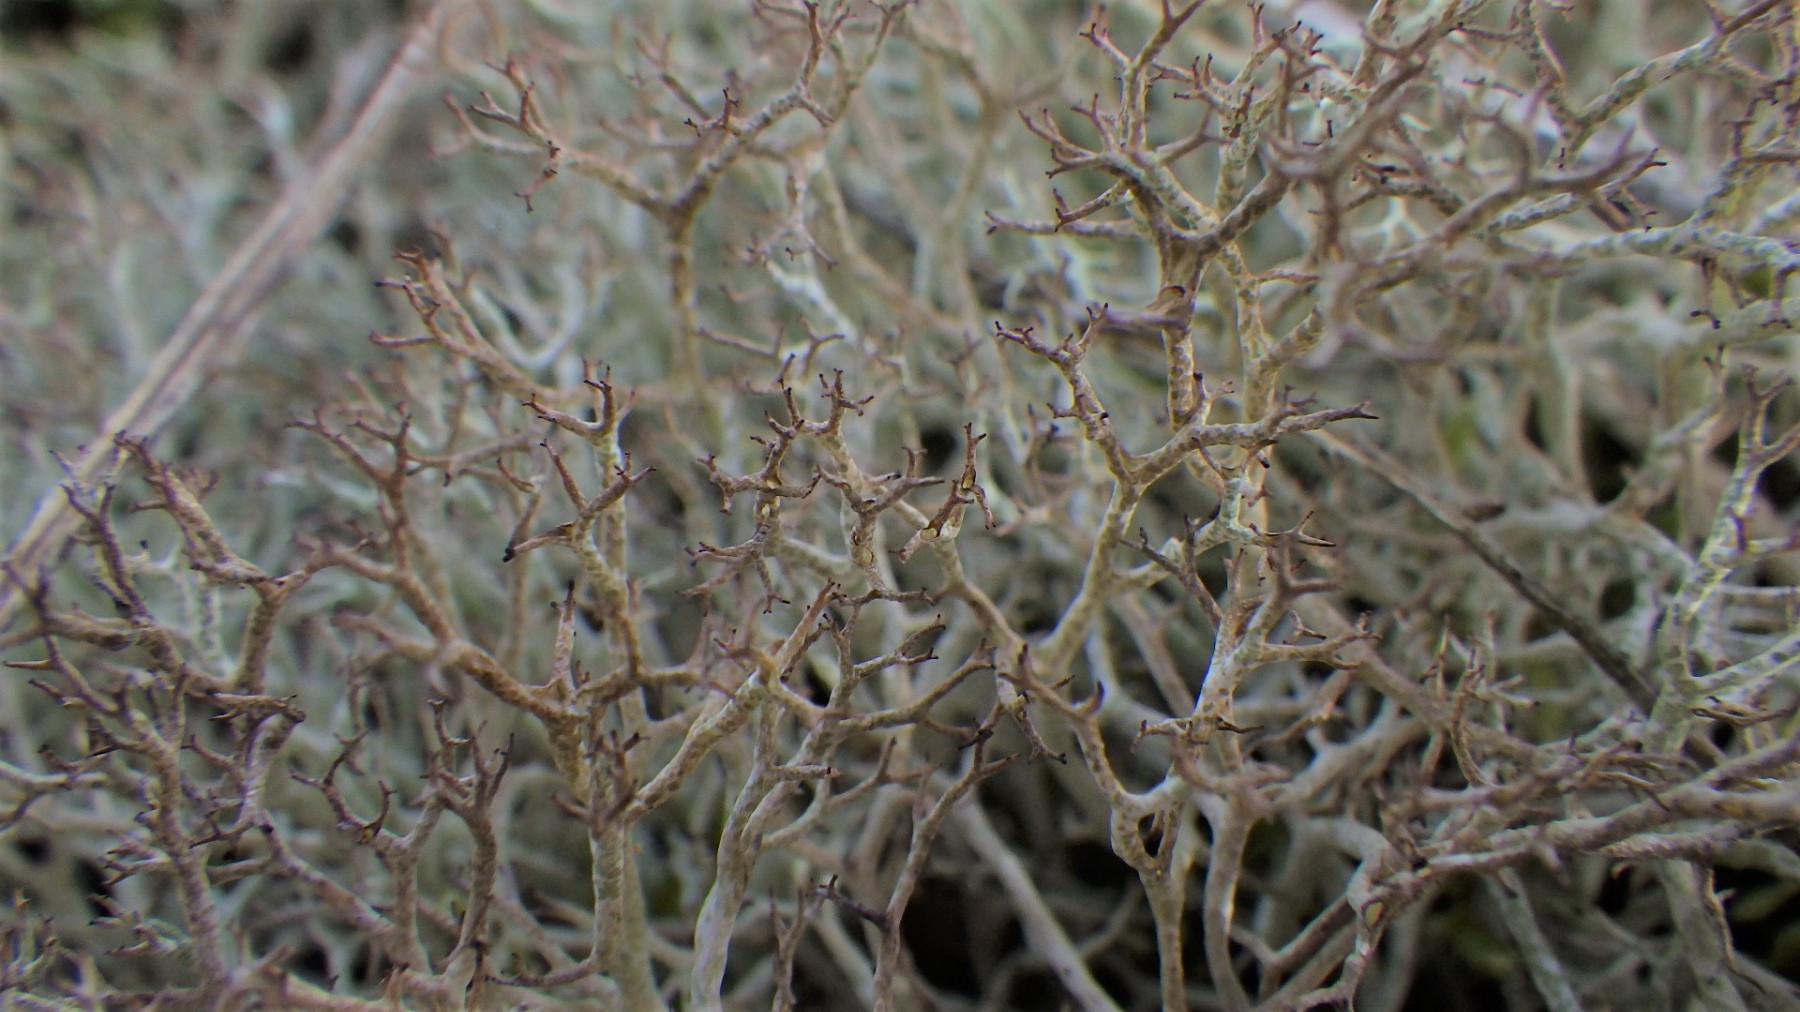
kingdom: Fungi
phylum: Ascomycota
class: Lecanoromycetes
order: Lecanorales
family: Cladoniaceae
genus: Cladonia
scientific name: Cladonia rangiformis
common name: spættet bægerlav
